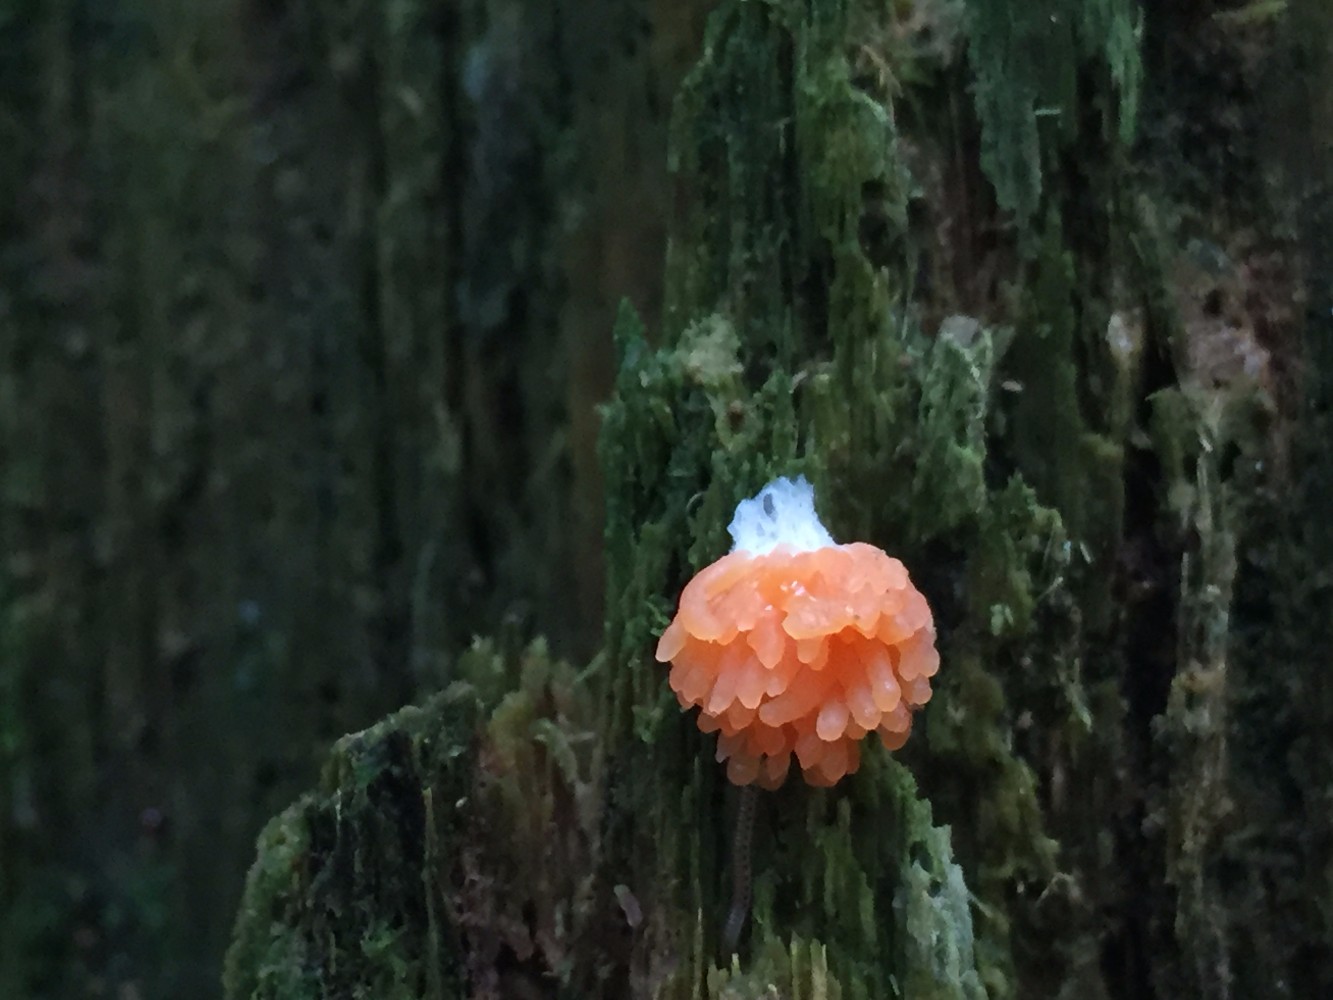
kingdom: Protozoa
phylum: Mycetozoa
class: Myxomycetes
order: Cribrariales
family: Tubiferaceae
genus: Tubifera
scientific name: Tubifera ferruginosa
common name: kanel-støvrør
